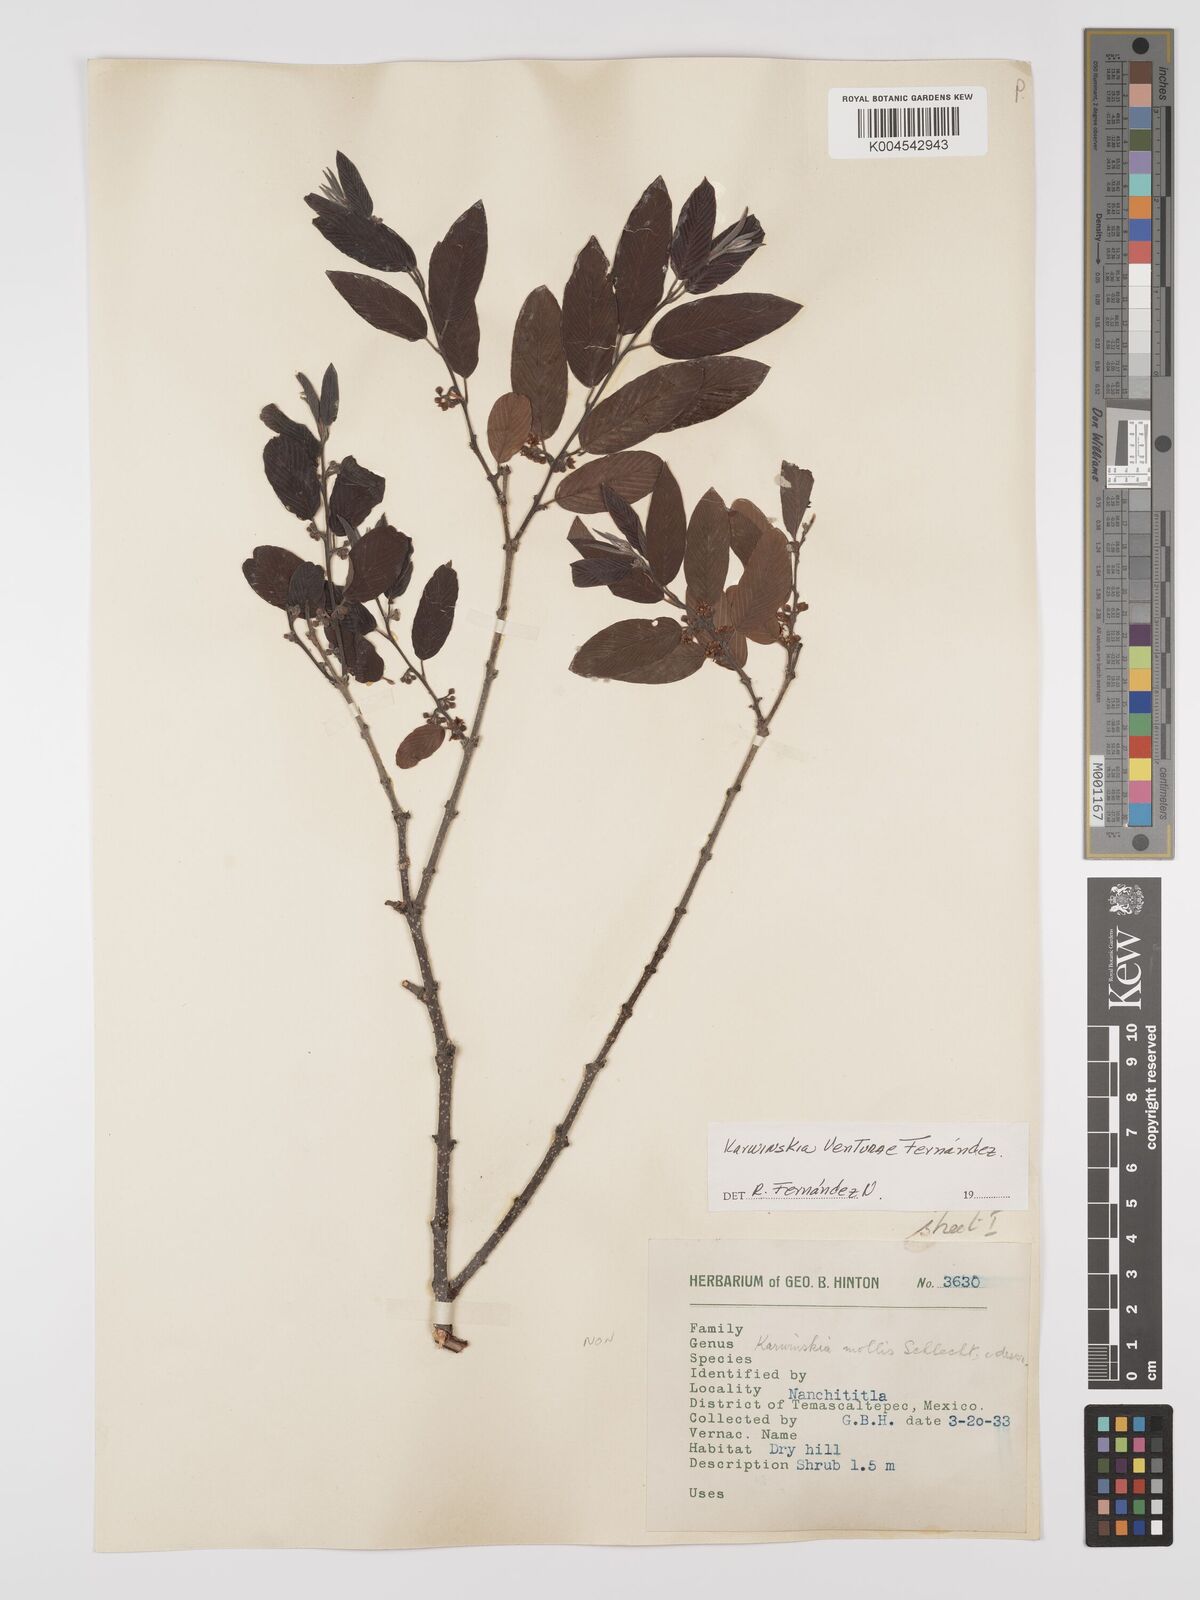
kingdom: Plantae
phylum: Tracheophyta
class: Magnoliopsida
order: Rosales
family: Rhamnaceae
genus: Karwinskia
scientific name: Karwinskia venturae
